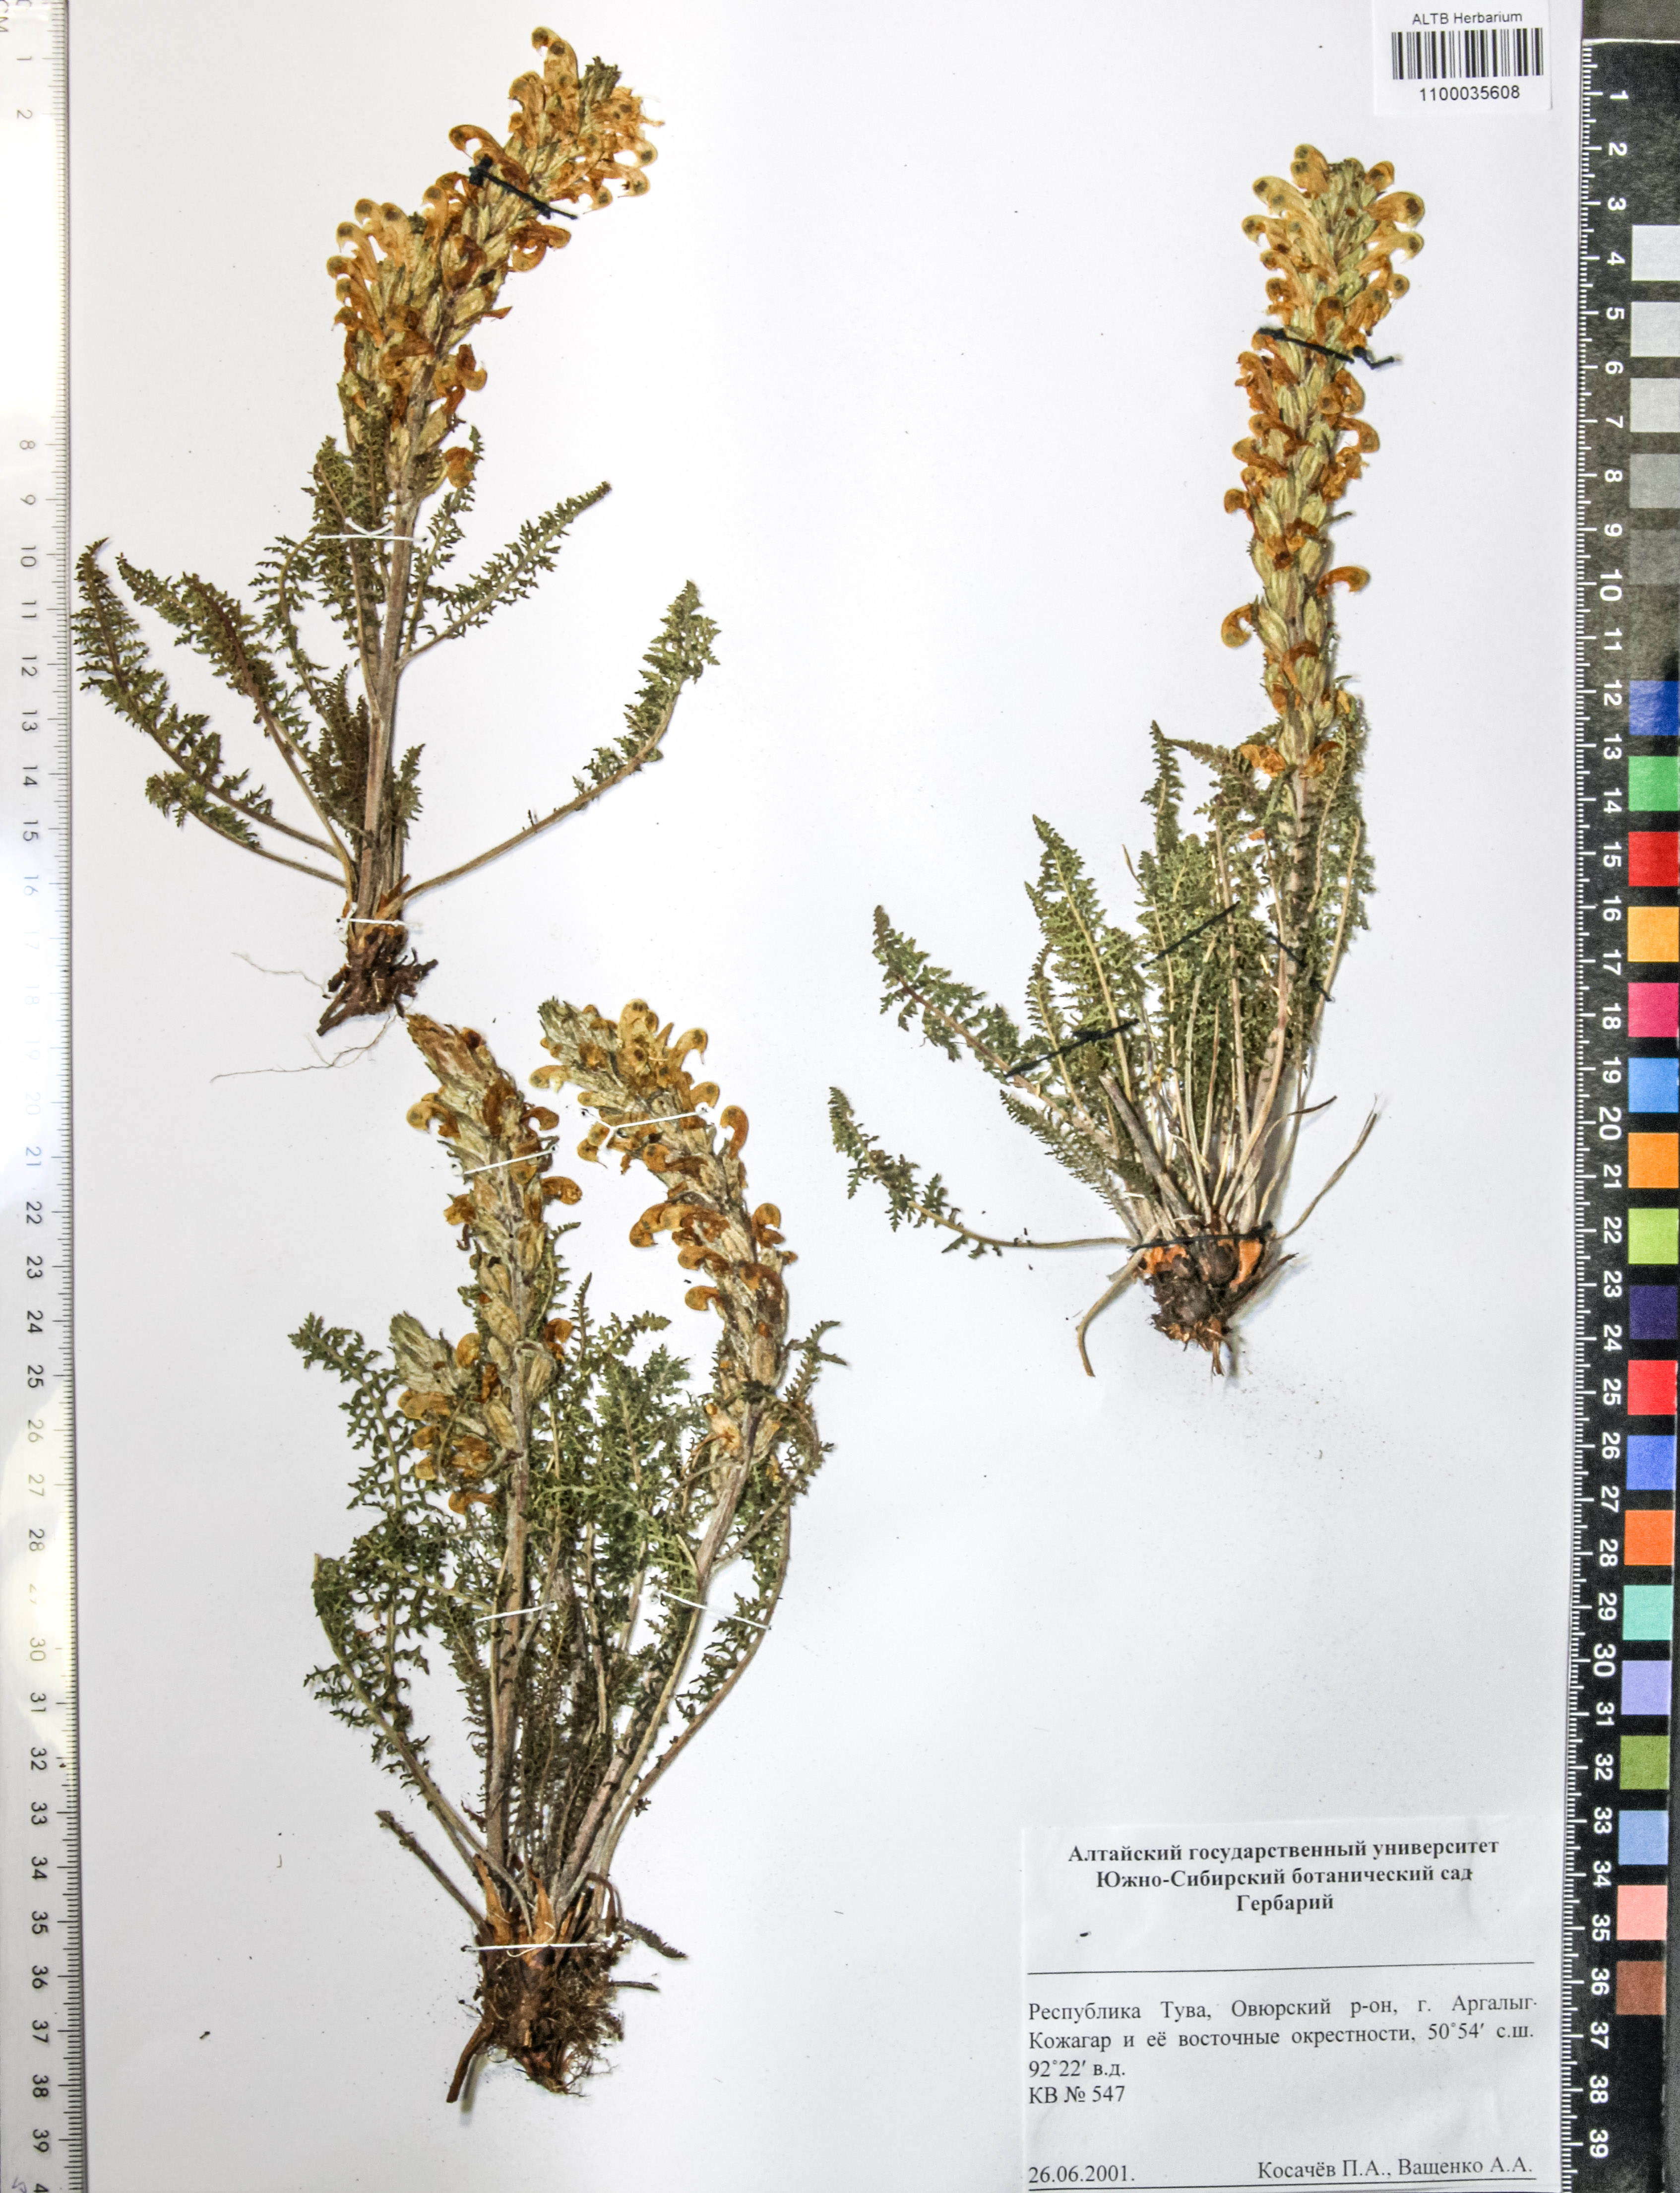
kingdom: Plantae
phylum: Tracheophyta
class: Magnoliopsida
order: Lamiales
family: Orobanchaceae
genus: Pedicularis
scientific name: Pedicularis sibirica
